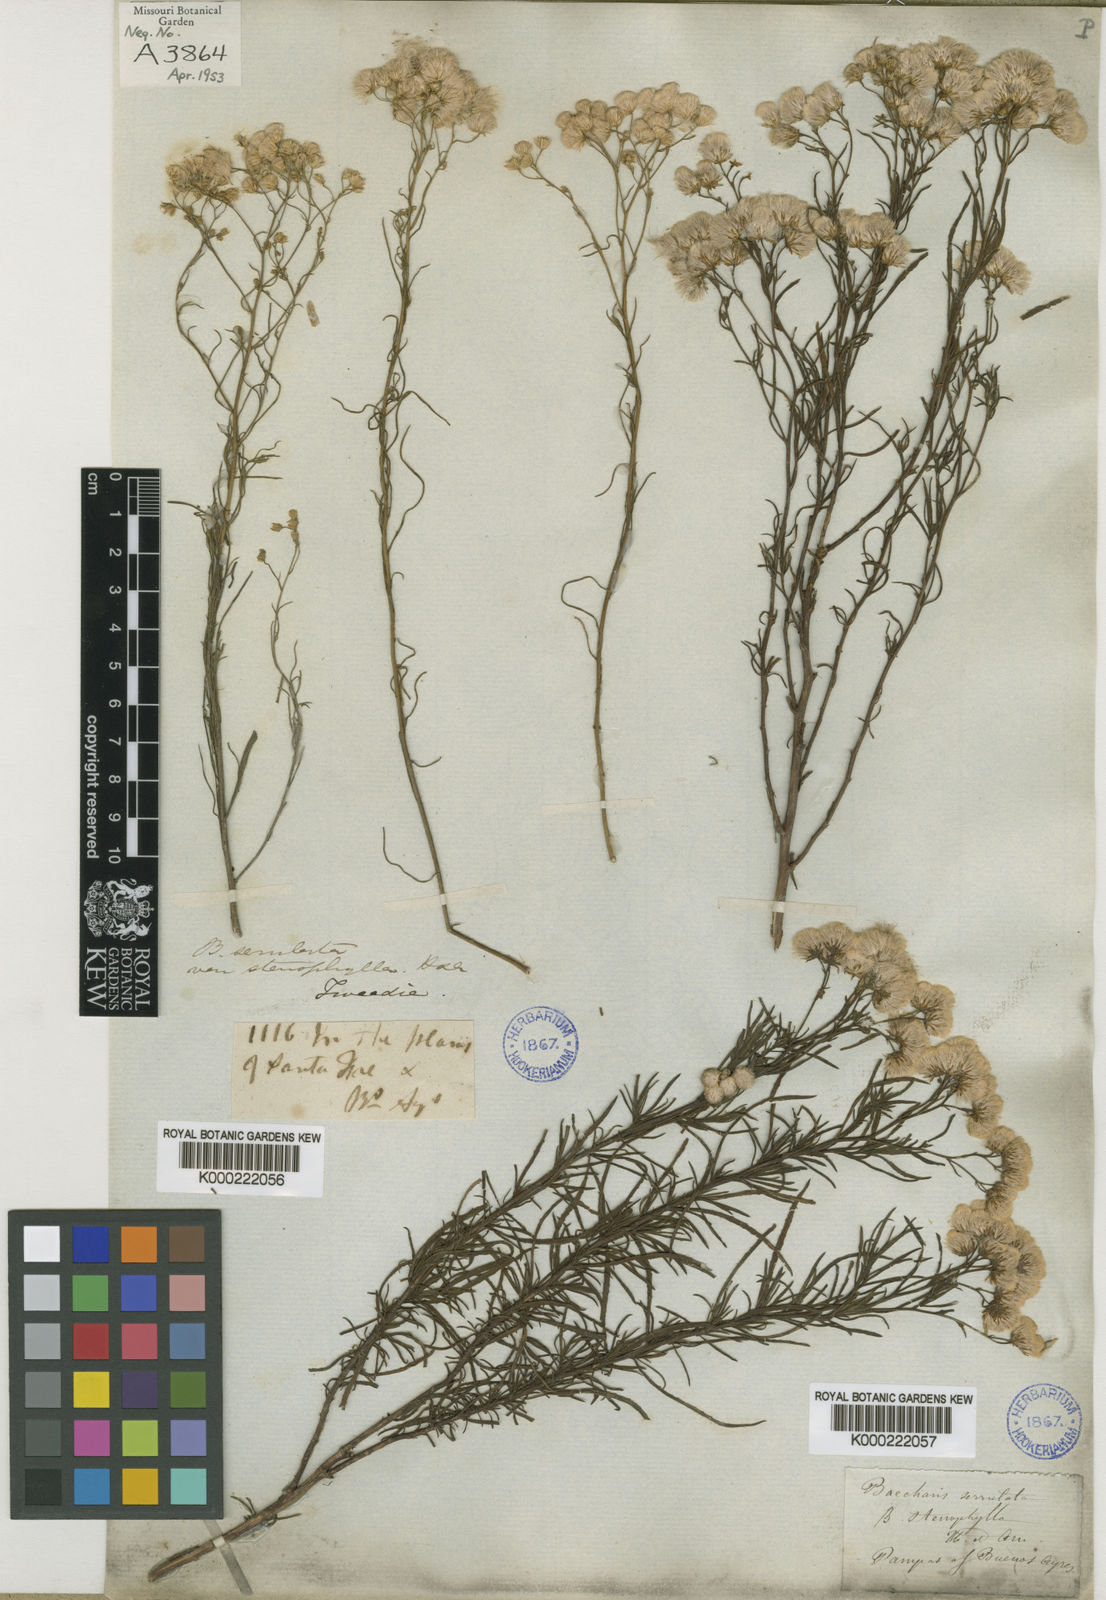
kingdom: Plantae
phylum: Tracheophyta
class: Magnoliopsida
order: Asterales
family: Asteraceae
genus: Baccharis
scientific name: Baccharis glutinosa
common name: Saltmarsh baccharis
